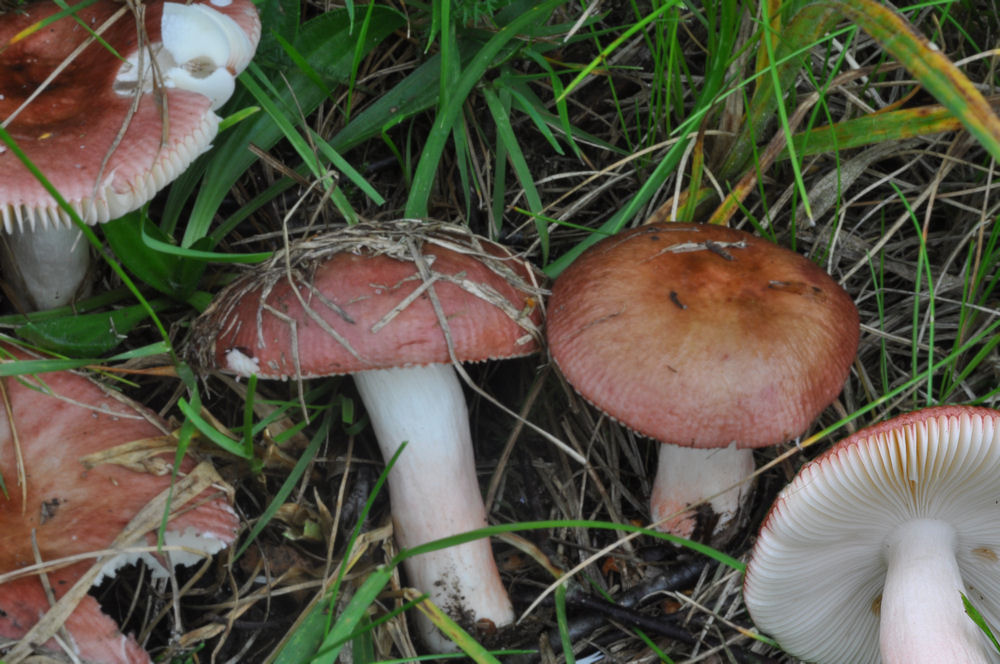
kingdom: Fungi
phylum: Basidiomycota
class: Agaricomycetes
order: Russulales
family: Russulaceae
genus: Russula
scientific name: Russula nitida
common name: året skørhat
